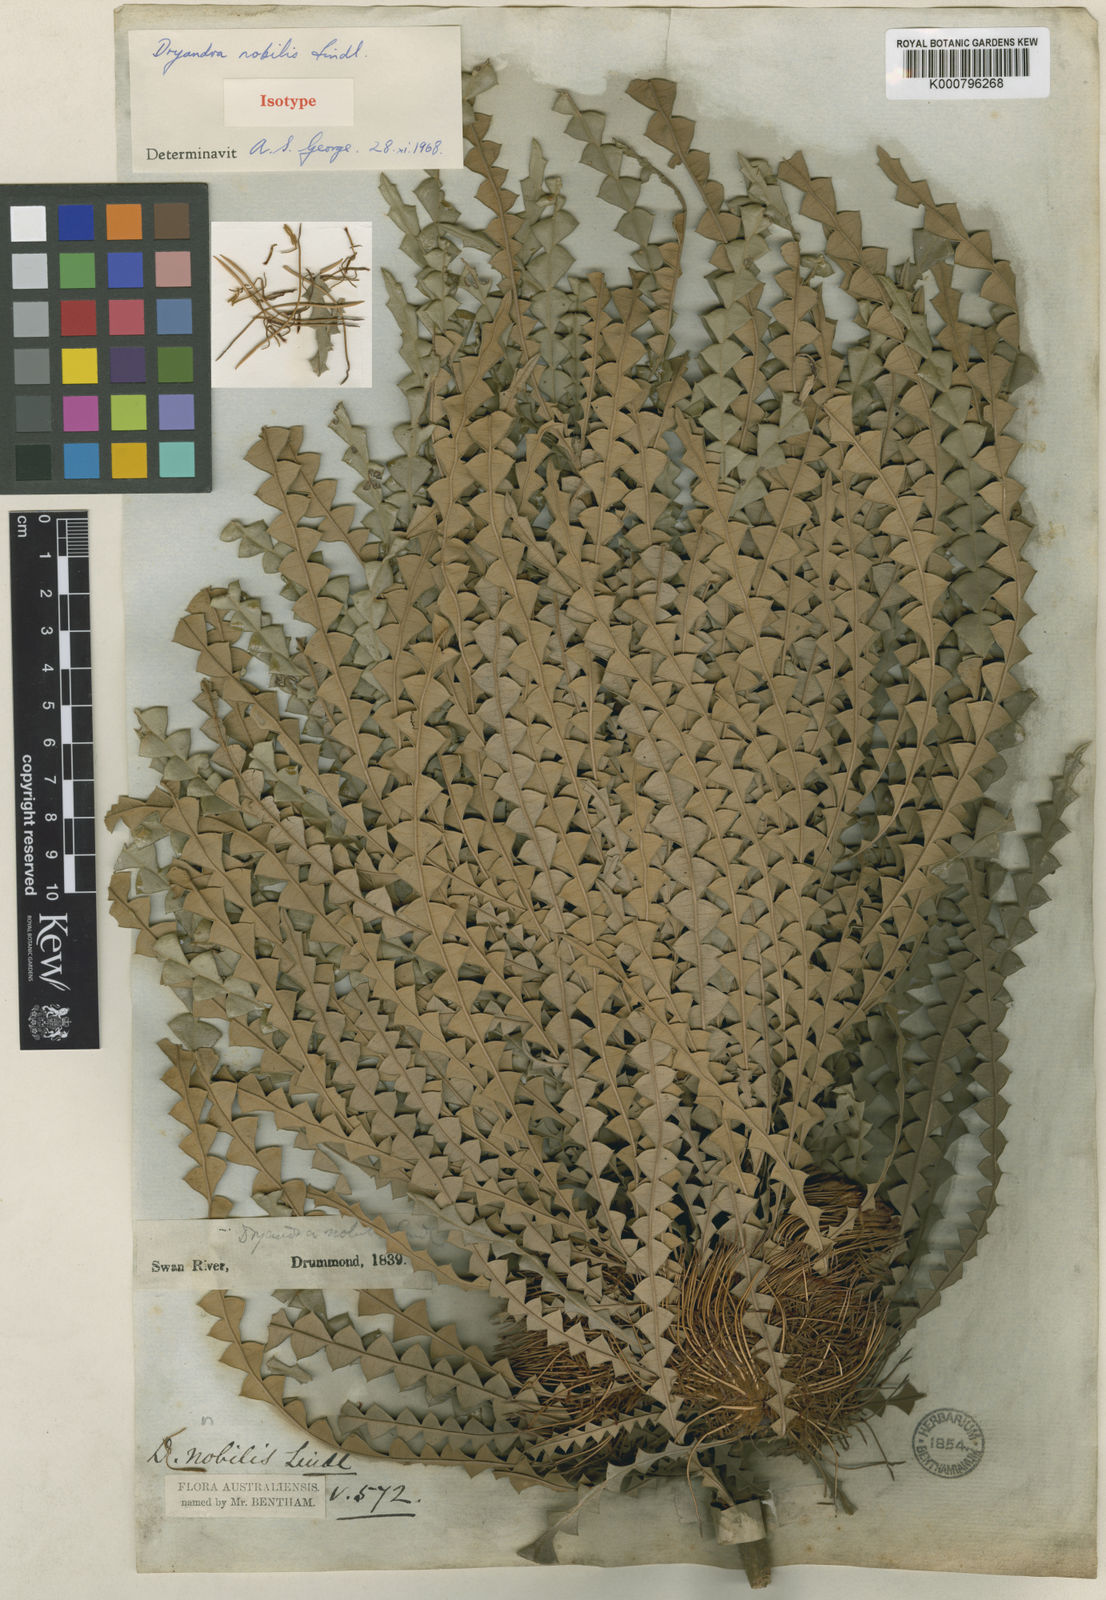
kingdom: Plantae
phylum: Tracheophyta
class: Magnoliopsida
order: Proteales
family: Proteaceae
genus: Banksia
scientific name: Banksia nobilis
